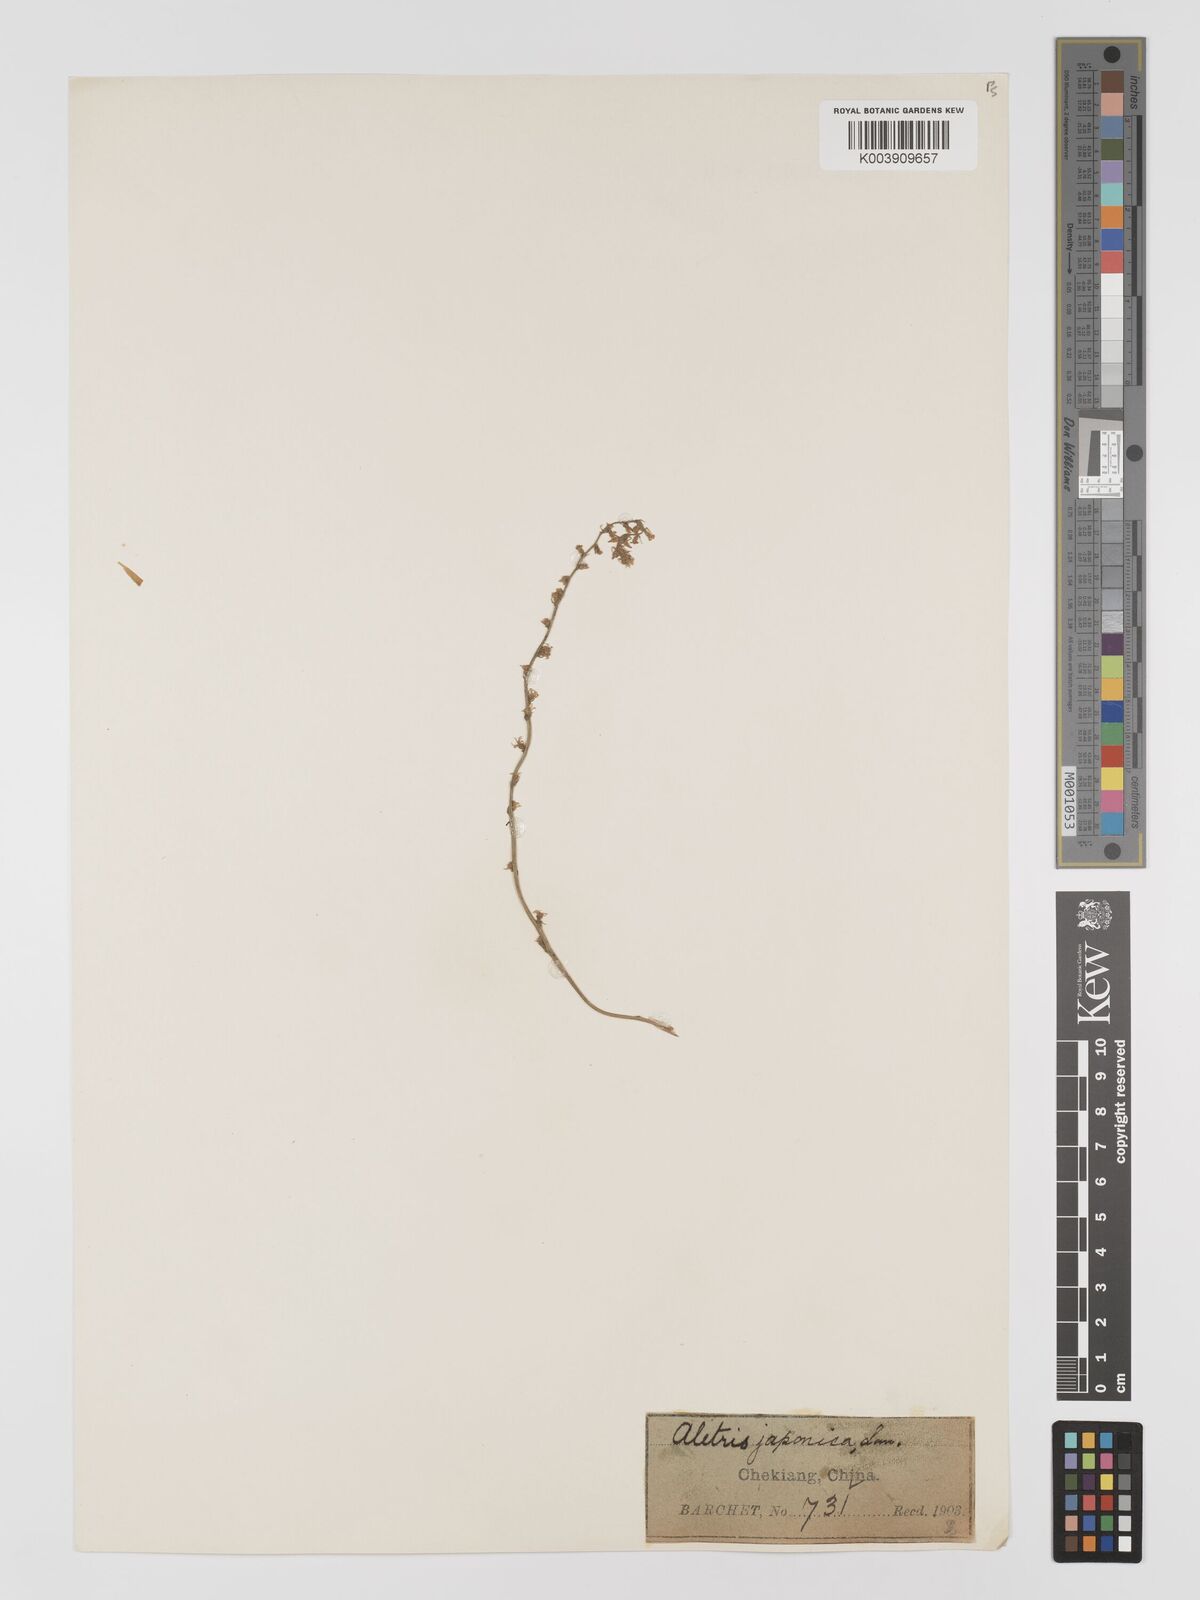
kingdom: Plantae
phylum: Tracheophyta
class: Liliopsida
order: Dioscoreales
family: Nartheciaceae
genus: Aletris
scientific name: Aletris spicata
